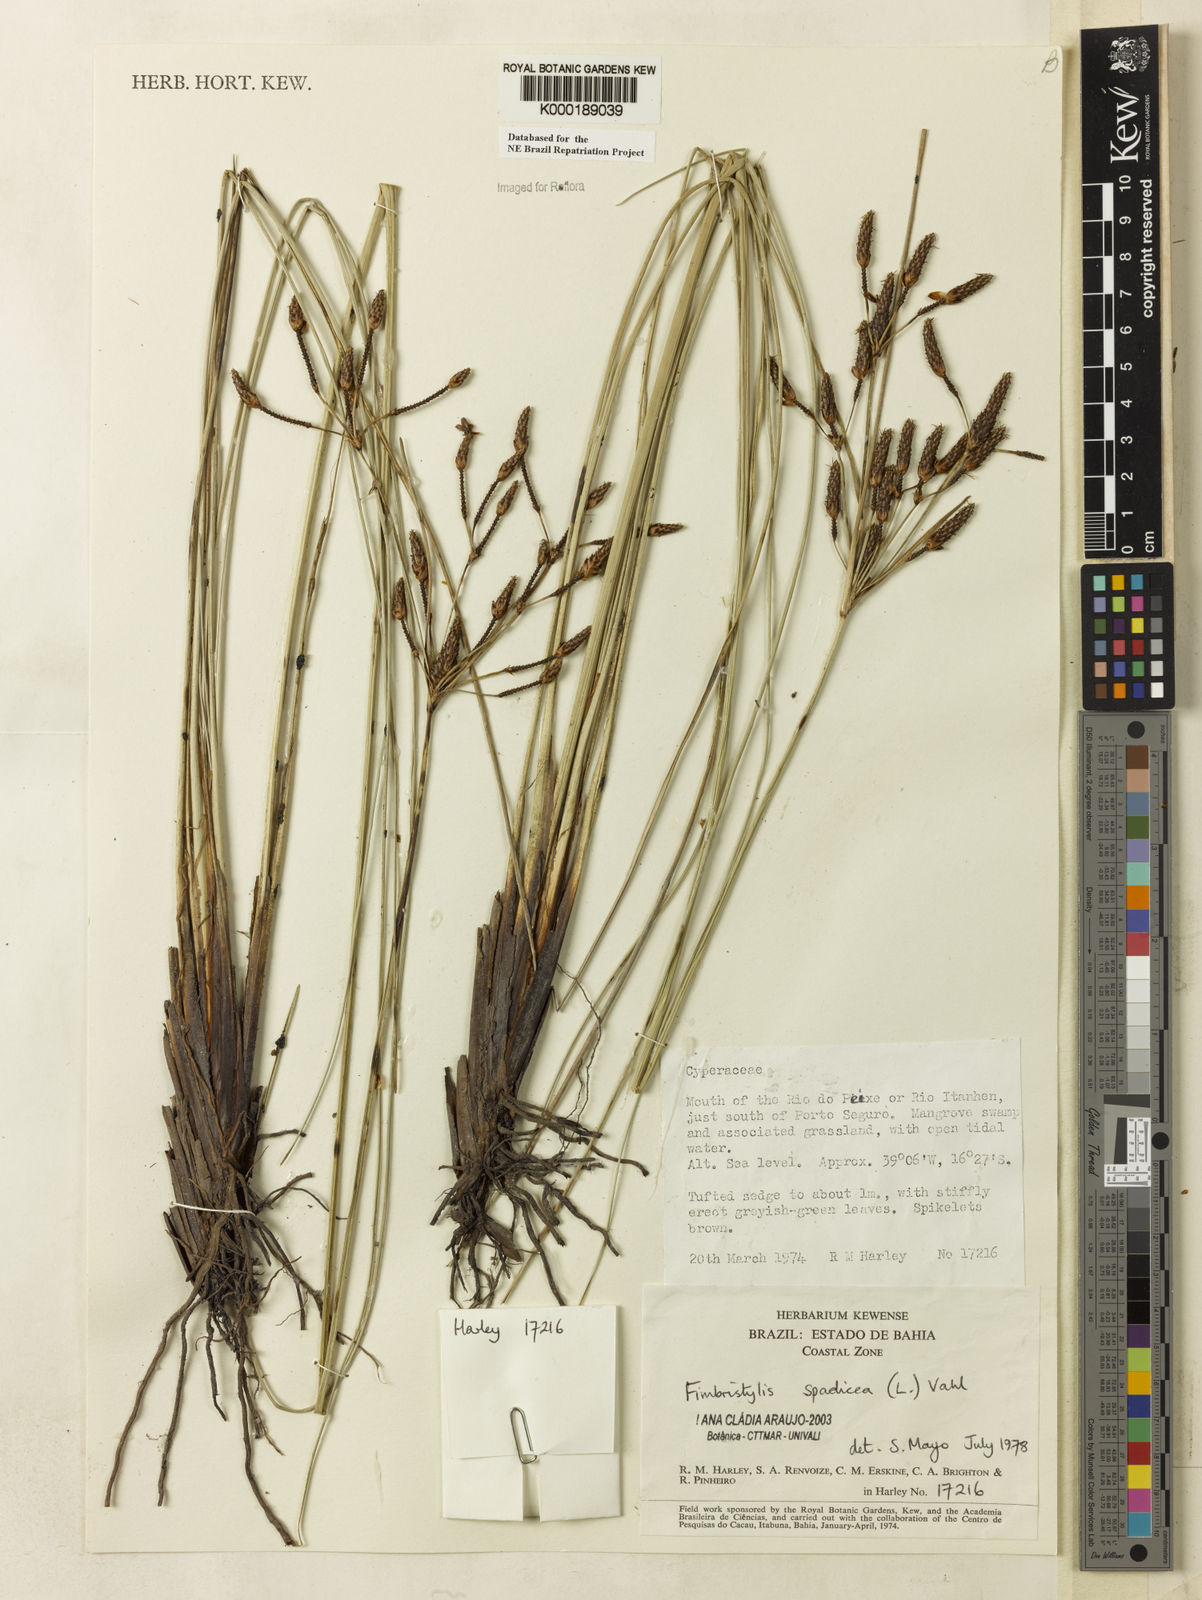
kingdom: Plantae
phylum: Tracheophyta
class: Liliopsida
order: Poales
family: Cyperaceae
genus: Fimbristylis
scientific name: Fimbristylis spadicea
